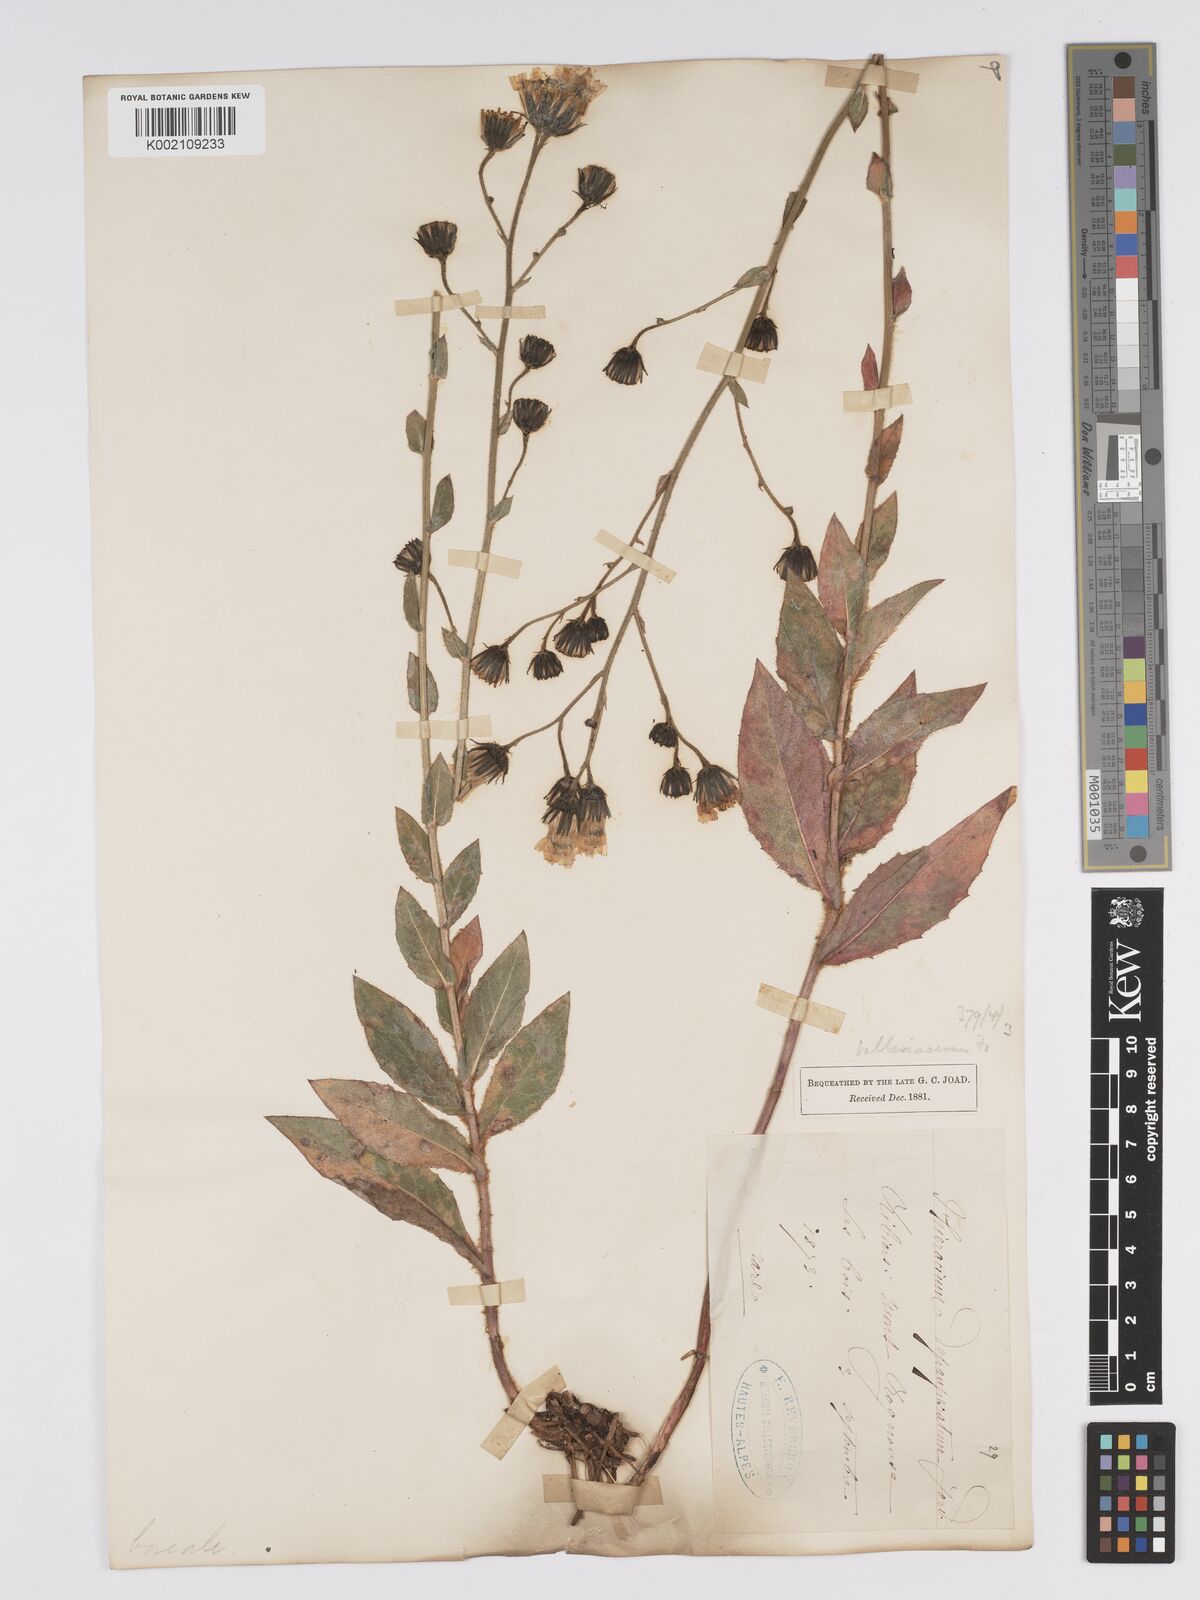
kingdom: Plantae
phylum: Tracheophyta
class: Magnoliopsida
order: Asterales
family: Asteraceae
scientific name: Asteraceae
